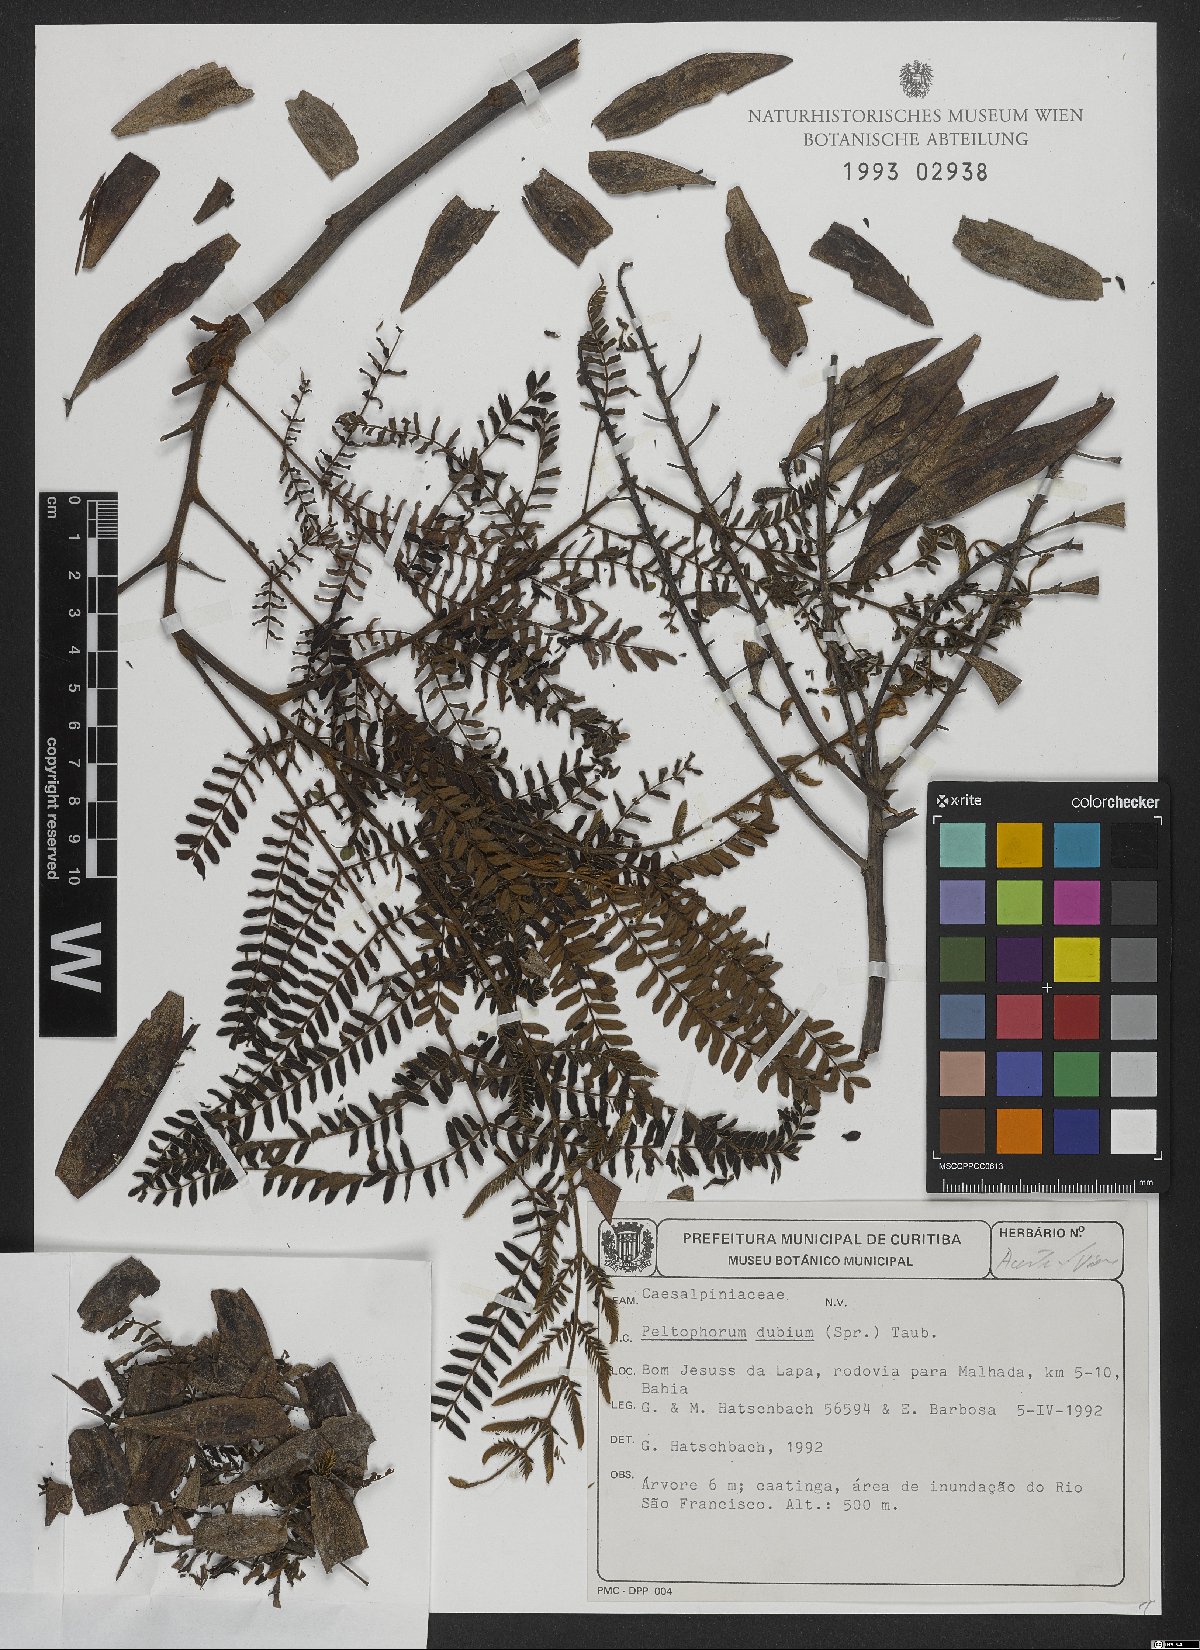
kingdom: Plantae
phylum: Tracheophyta
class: Magnoliopsida
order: Fabales
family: Fabaceae
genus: Peltophorum
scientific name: Peltophorum dubium
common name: Horsebush
